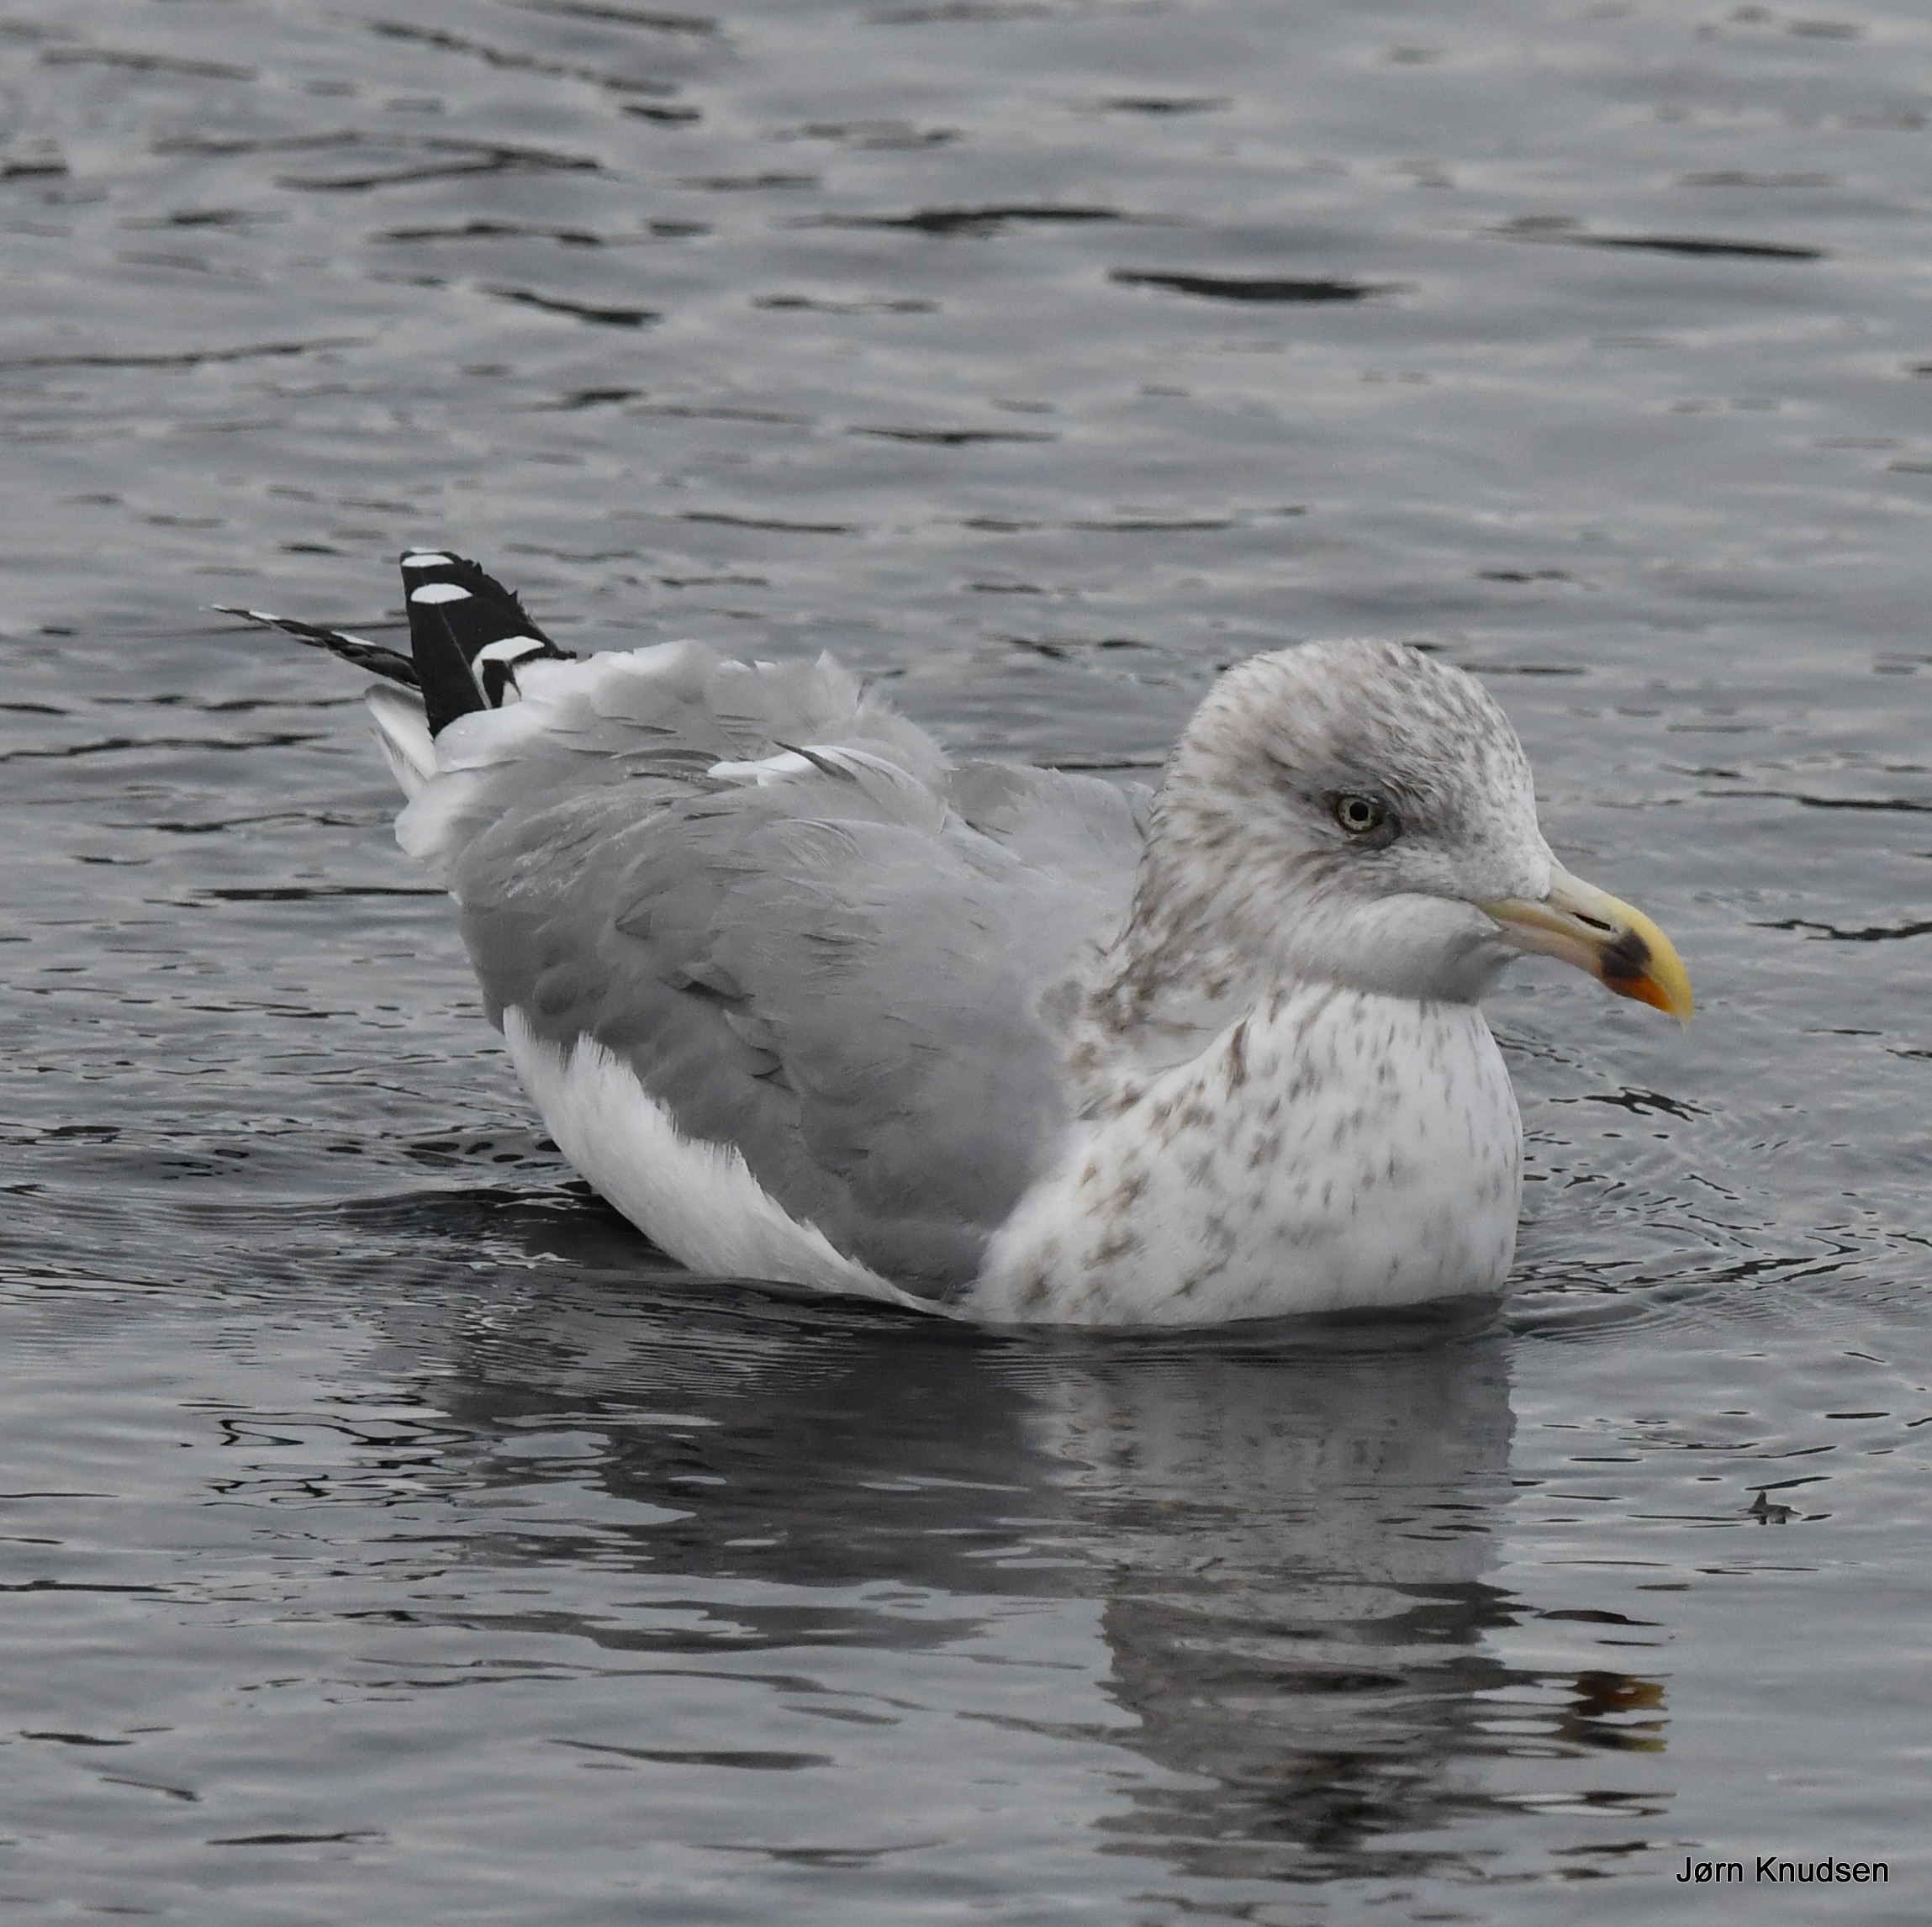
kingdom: Animalia
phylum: Chordata
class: Aves
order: Charadriiformes
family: Laridae
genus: Larus
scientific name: Larus argentatus
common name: Sølvmåge
